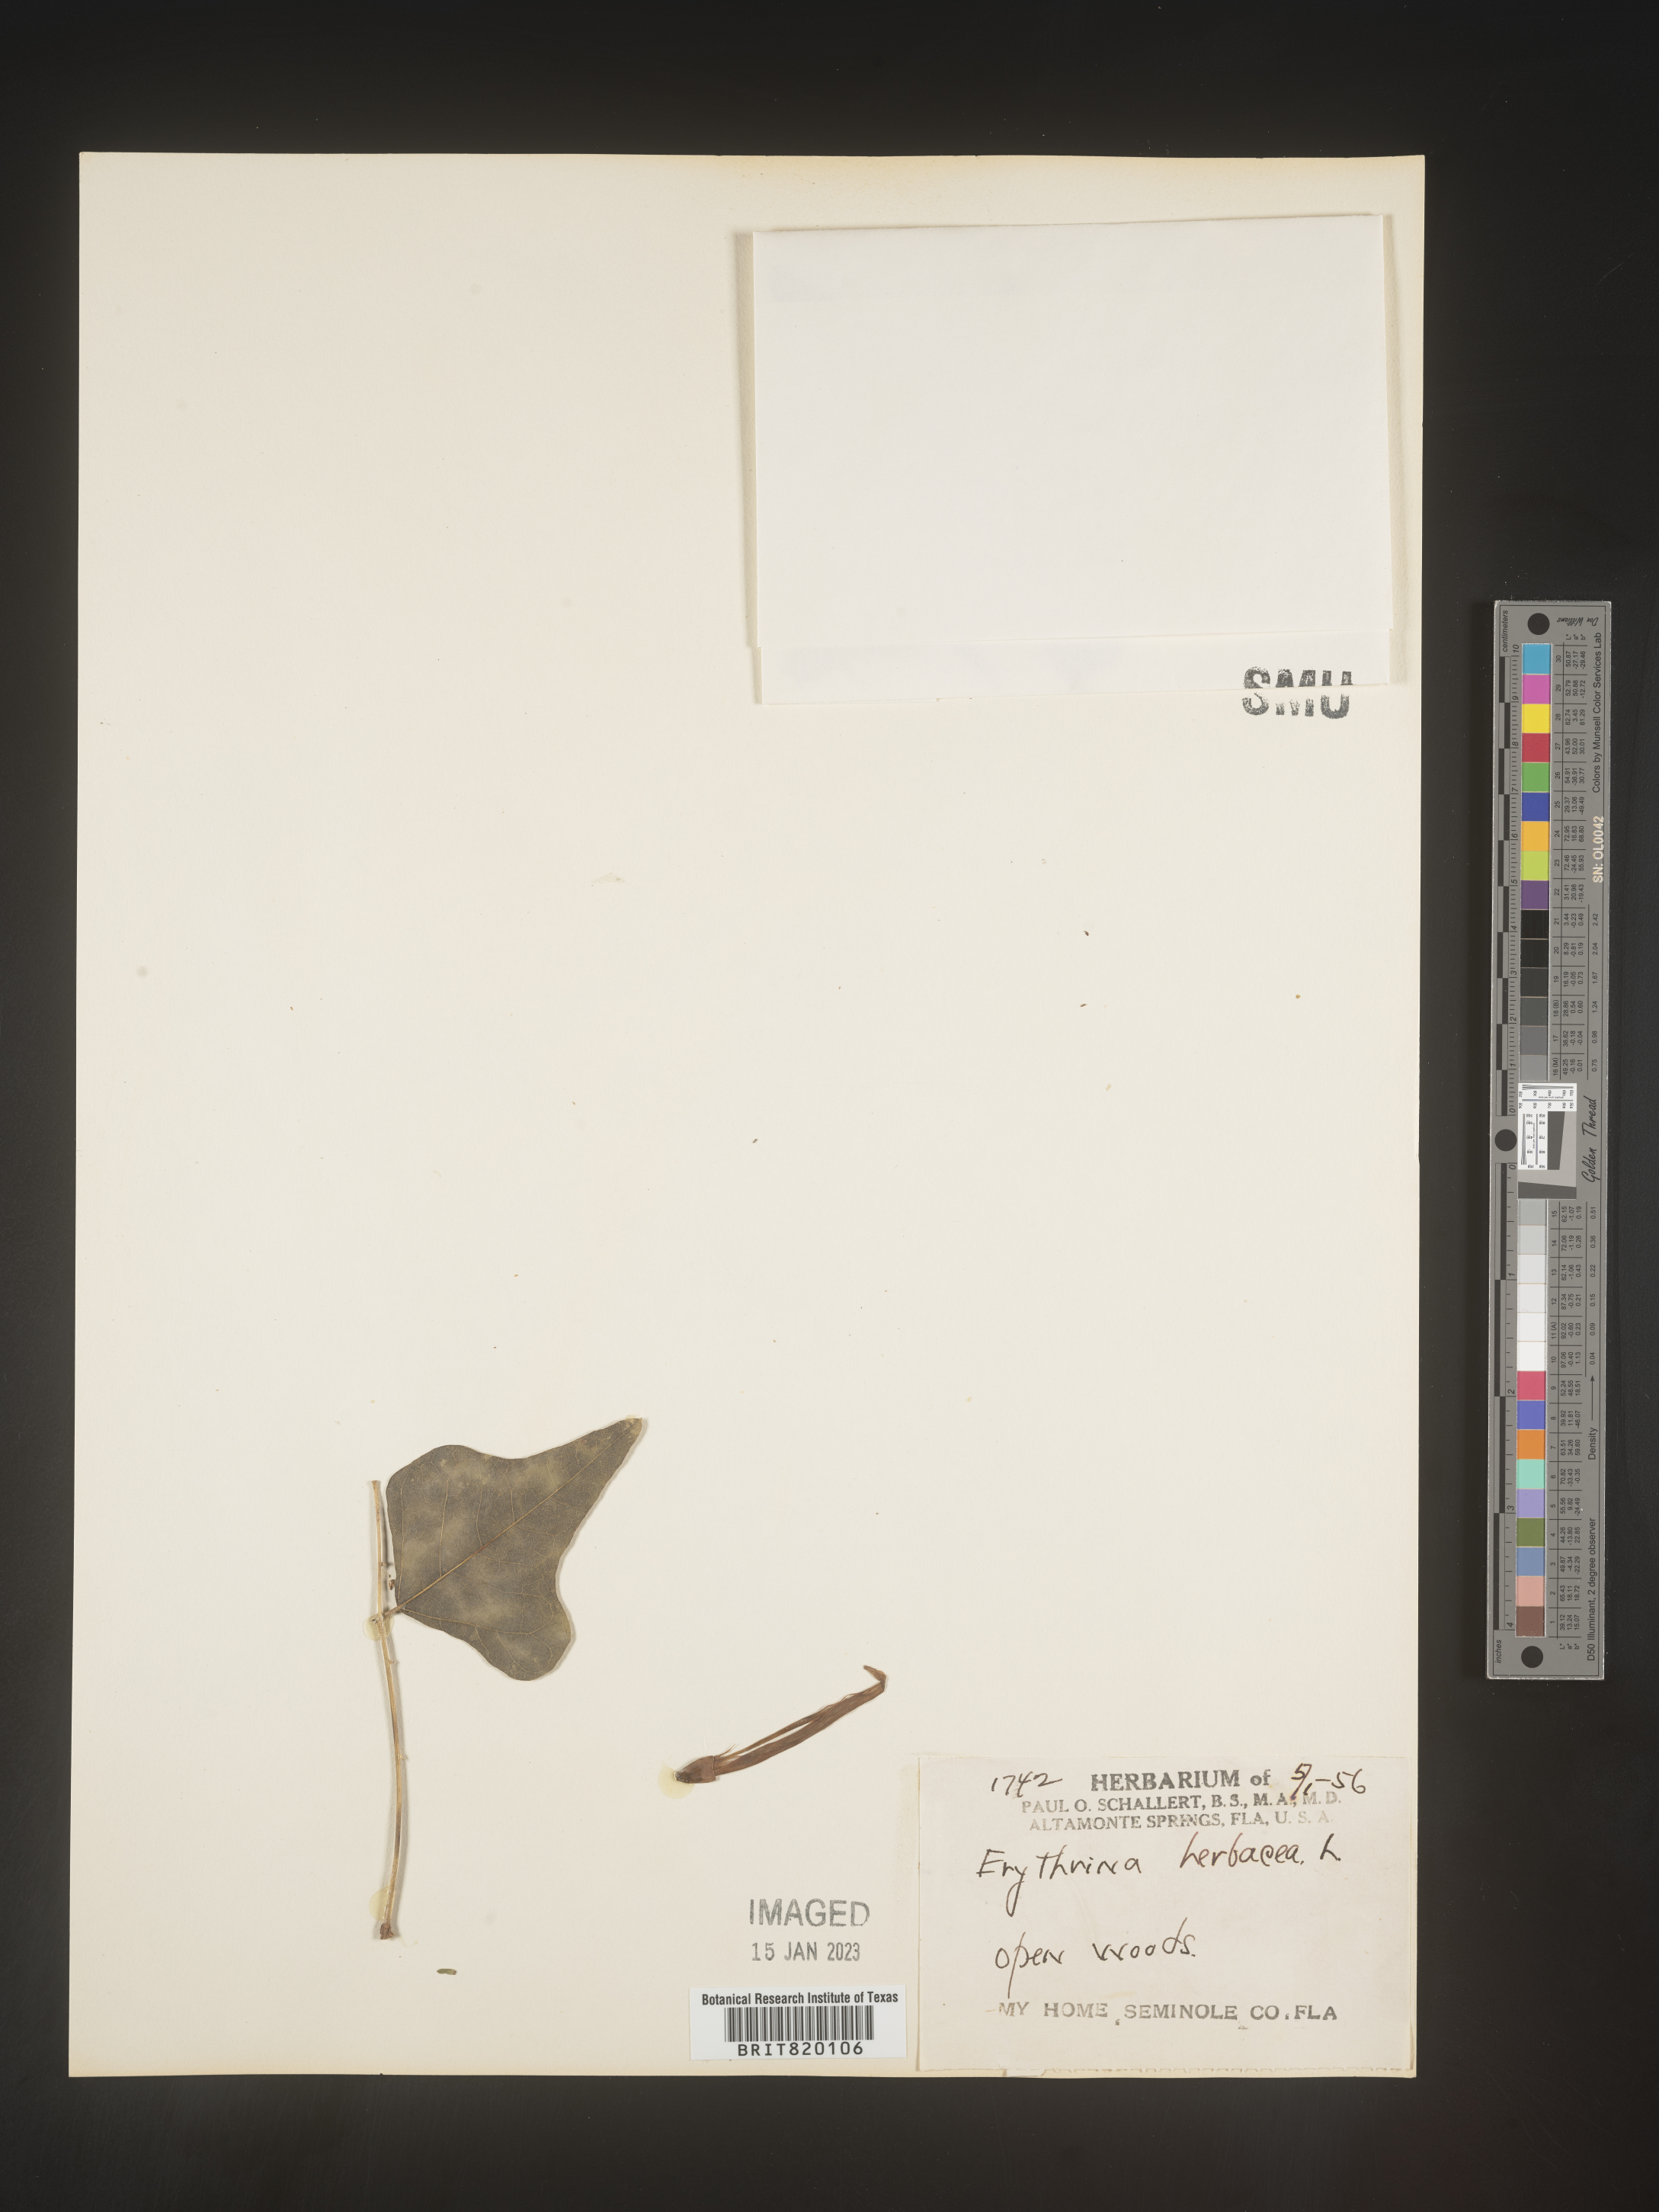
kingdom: Plantae
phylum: Tracheophyta
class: Magnoliopsida
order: Fabales
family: Fabaceae
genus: Erythrina
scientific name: Erythrina herbacea
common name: Coral-bean
